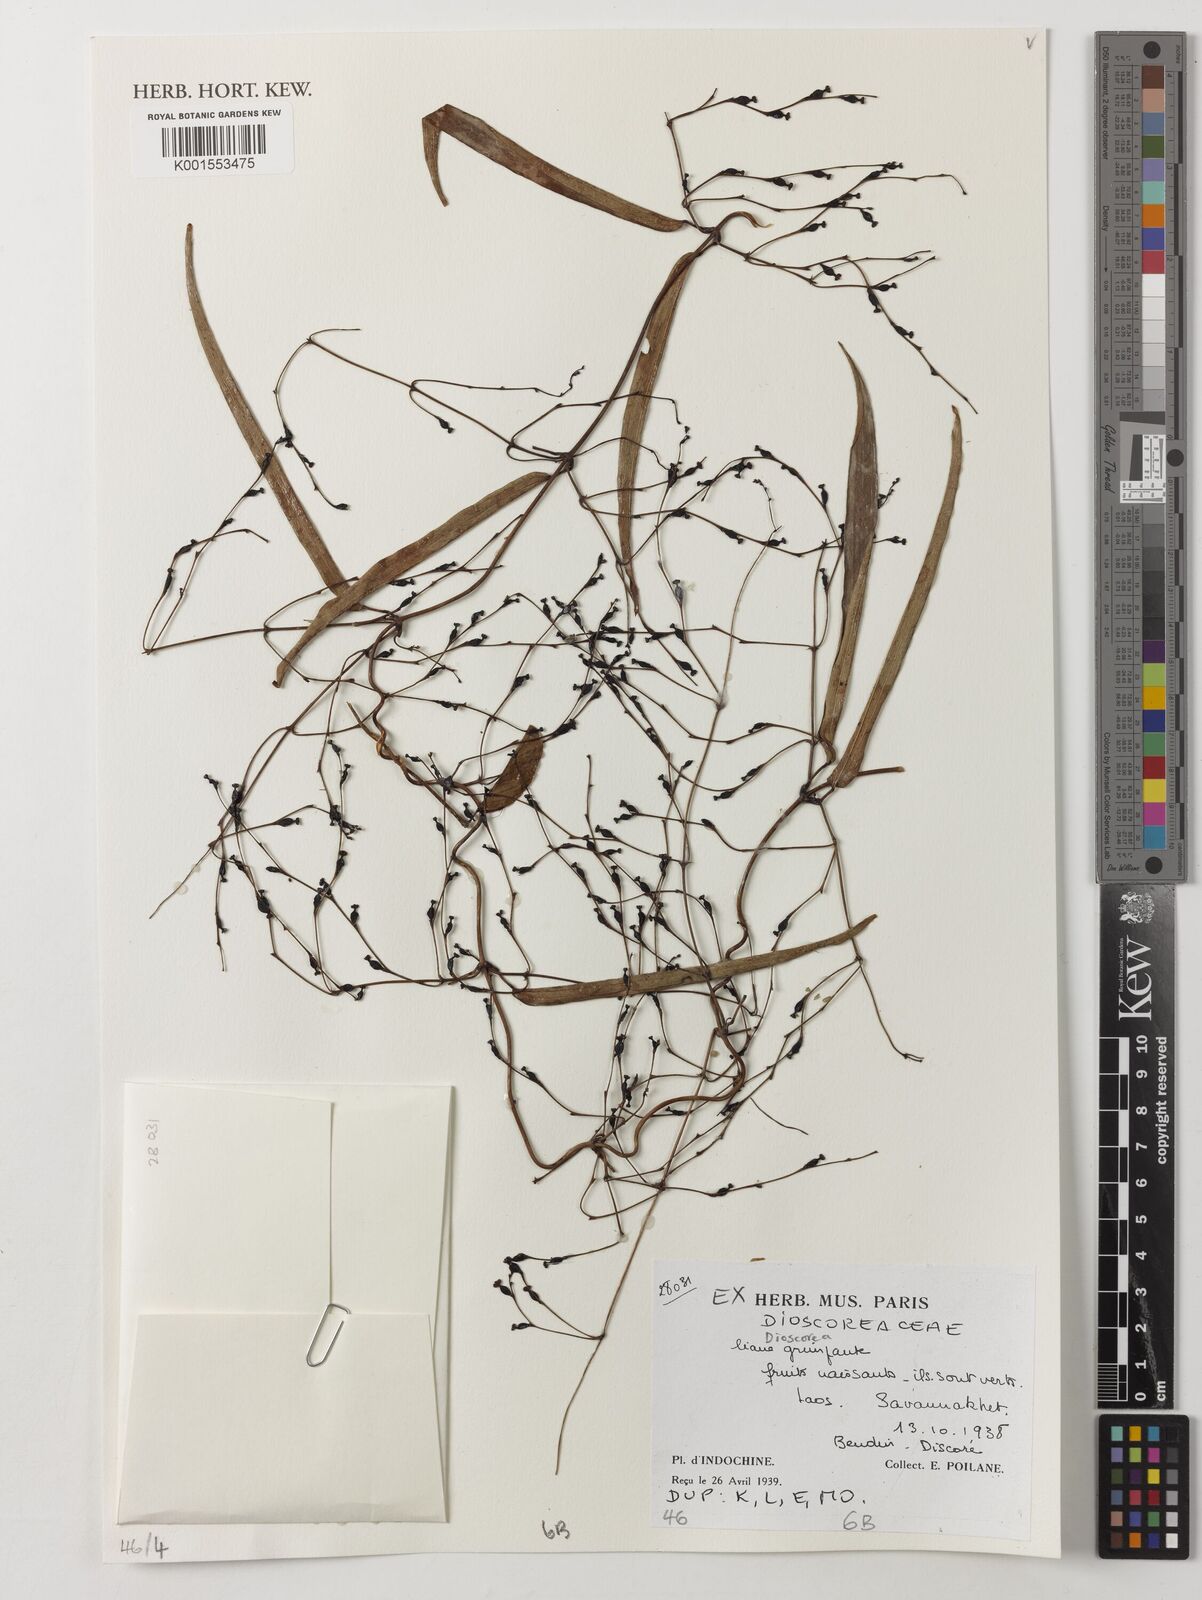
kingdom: Plantae
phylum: Tracheophyta
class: Liliopsida
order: Dioscoreales
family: Dioscoreaceae
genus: Dioscorea
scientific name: Dioscorea
